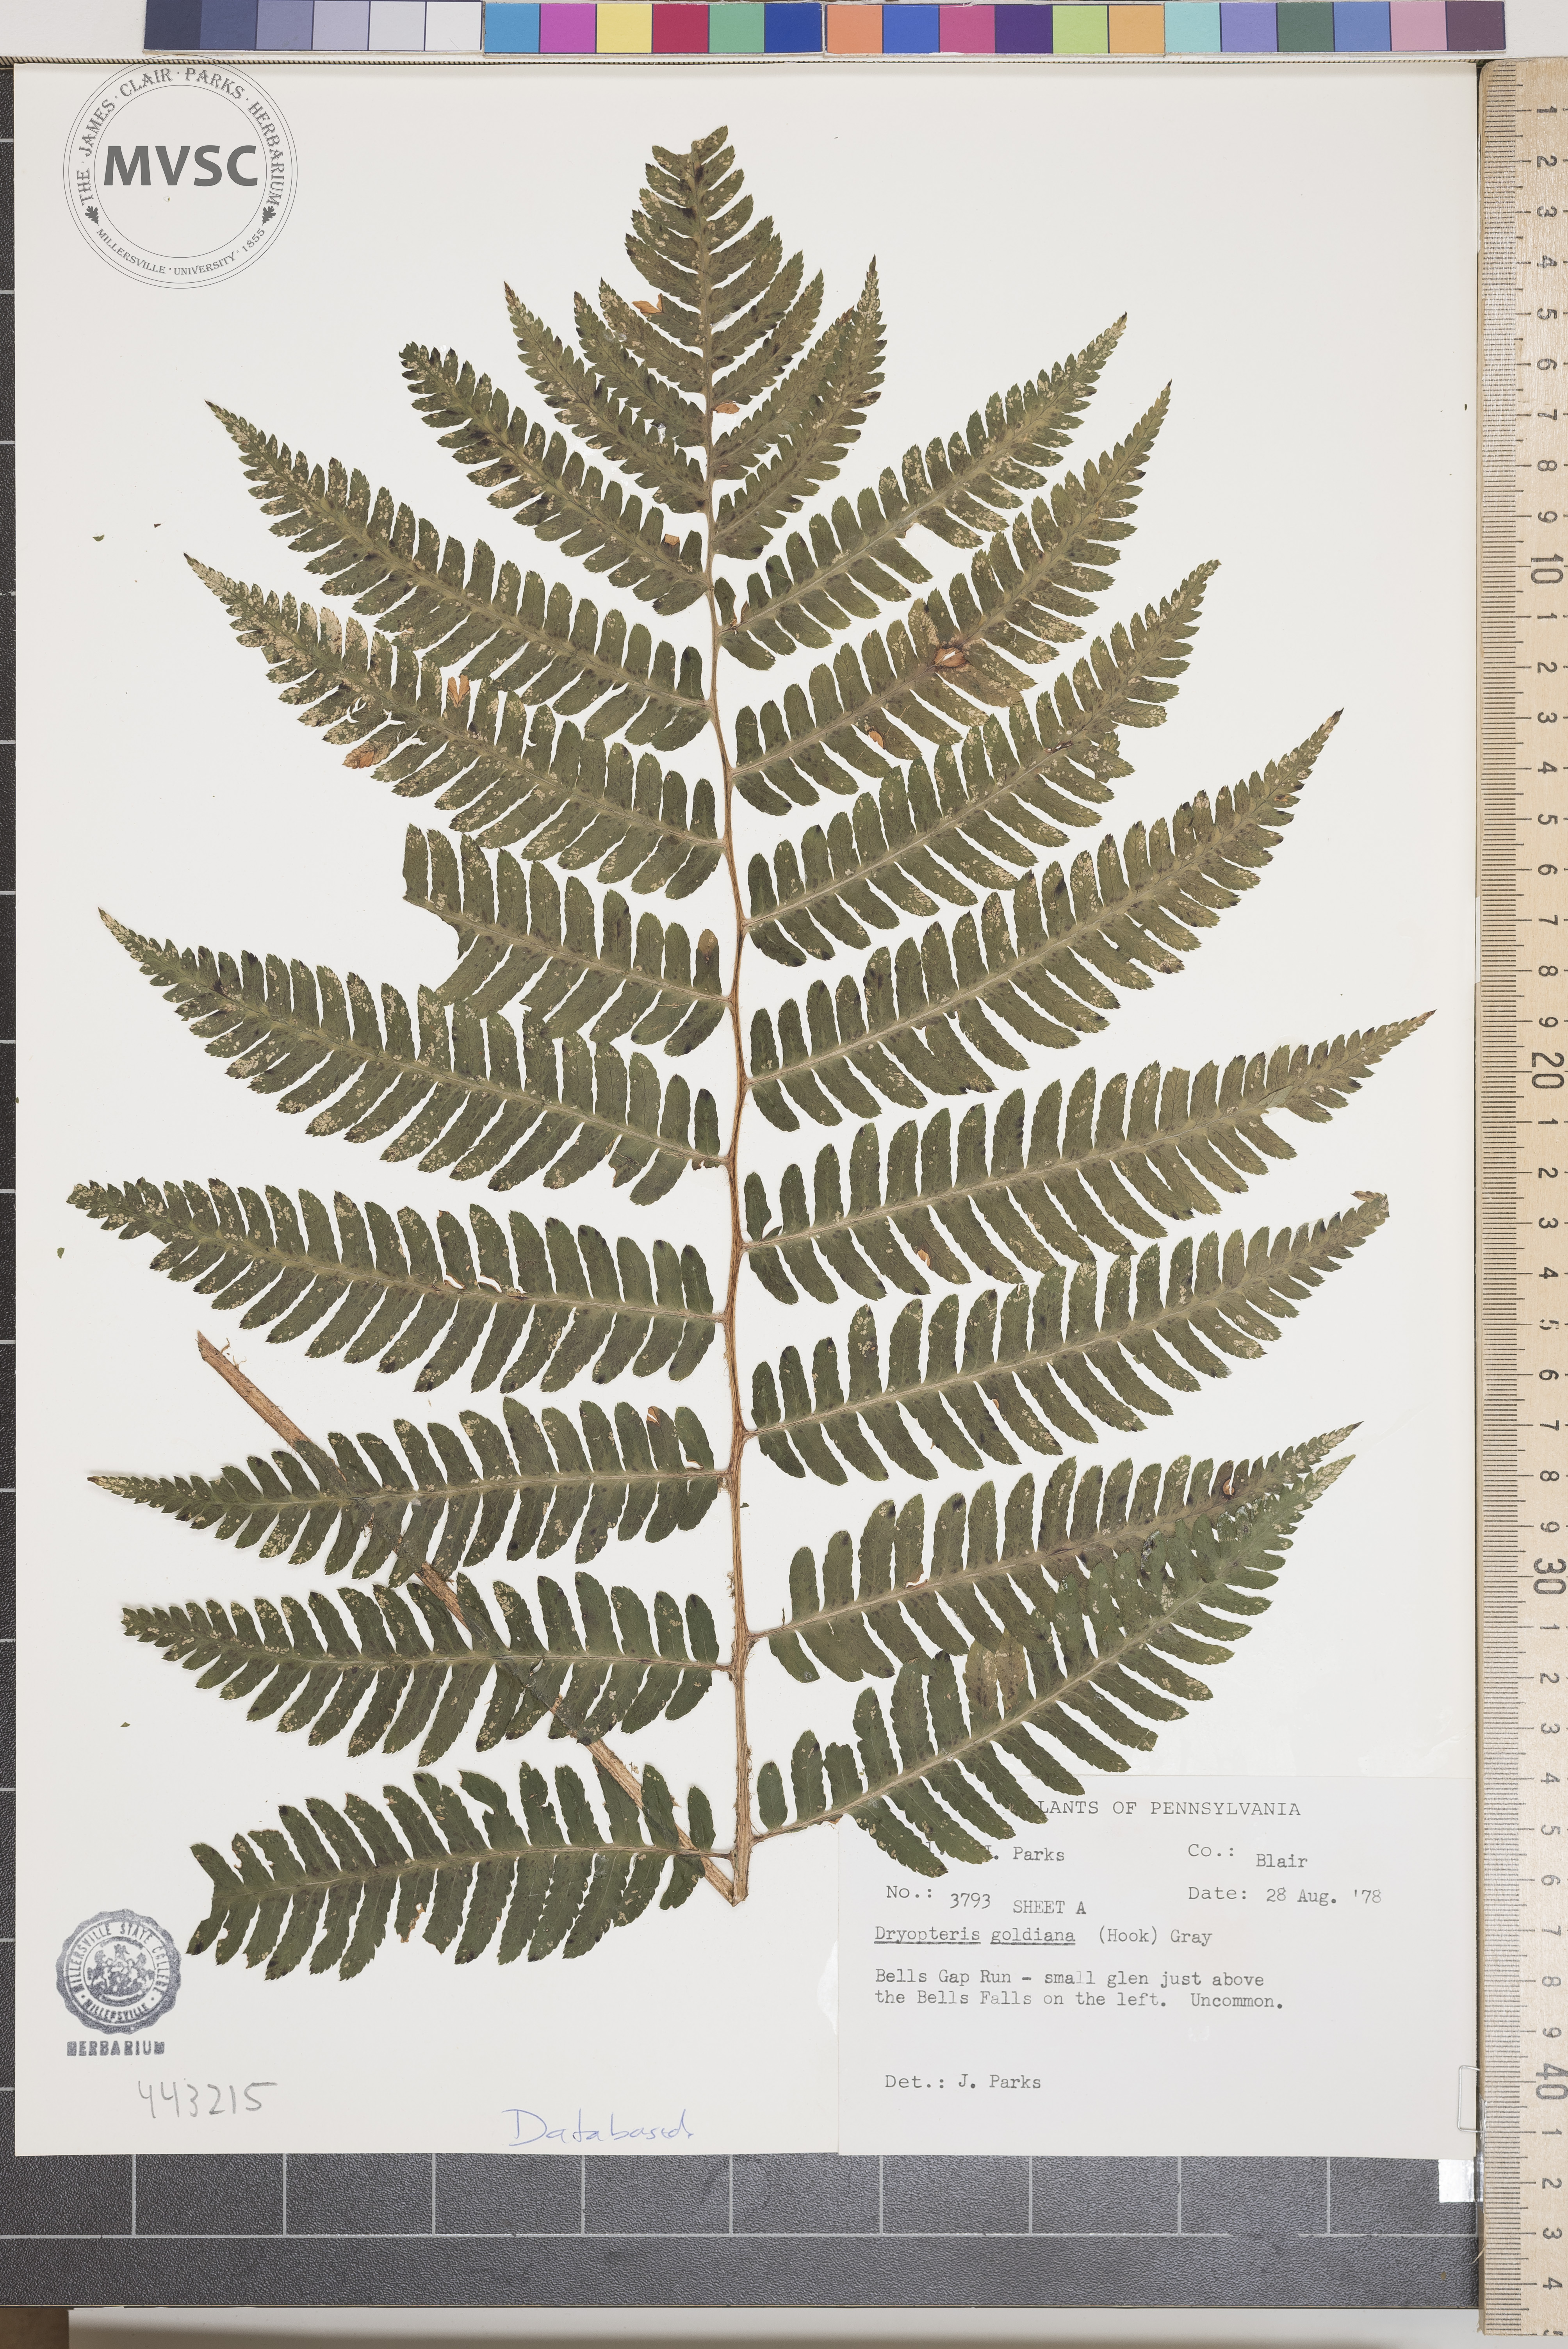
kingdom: Plantae
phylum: Tracheophyta
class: Polypodiopsida
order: Polypodiales
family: Dryopteridaceae
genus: Dryopteris
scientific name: Dryopteris goeldiana
